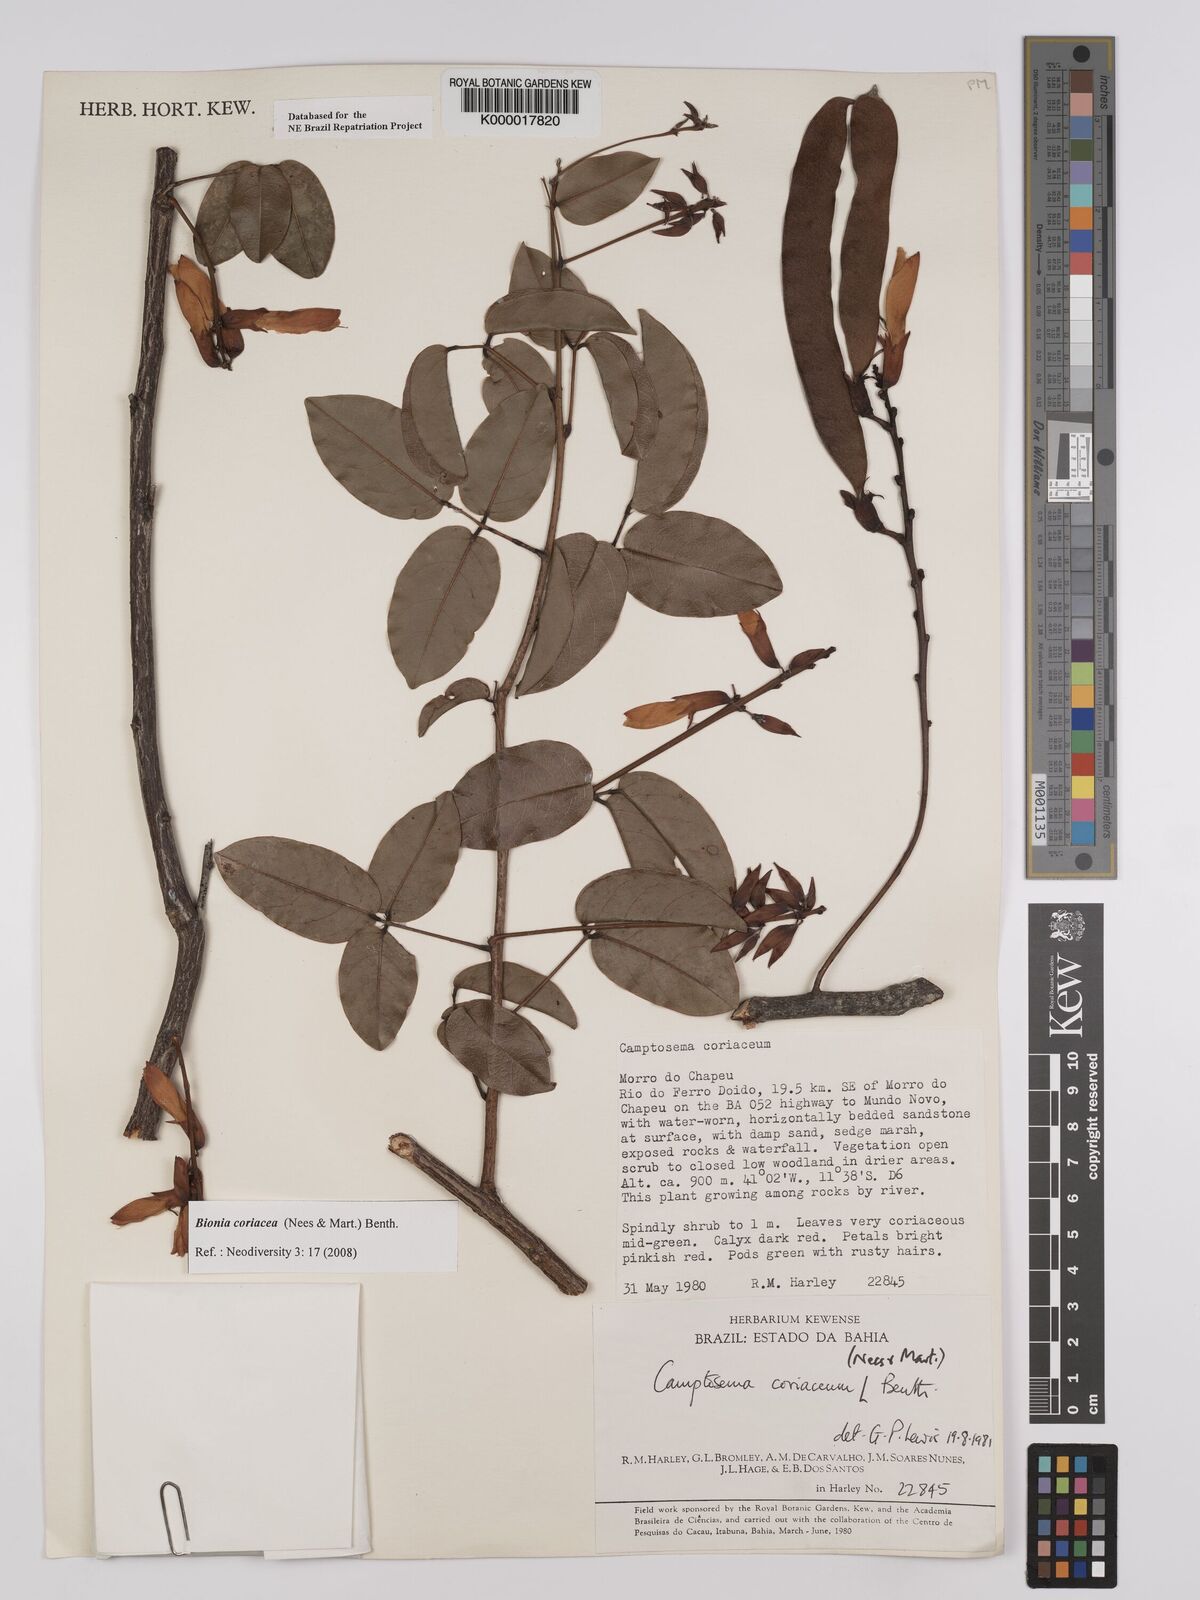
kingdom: Plantae
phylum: Tracheophyta
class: Magnoliopsida
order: Fabales
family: Fabaceae
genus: Camptosema
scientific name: Camptosema coriaceum
